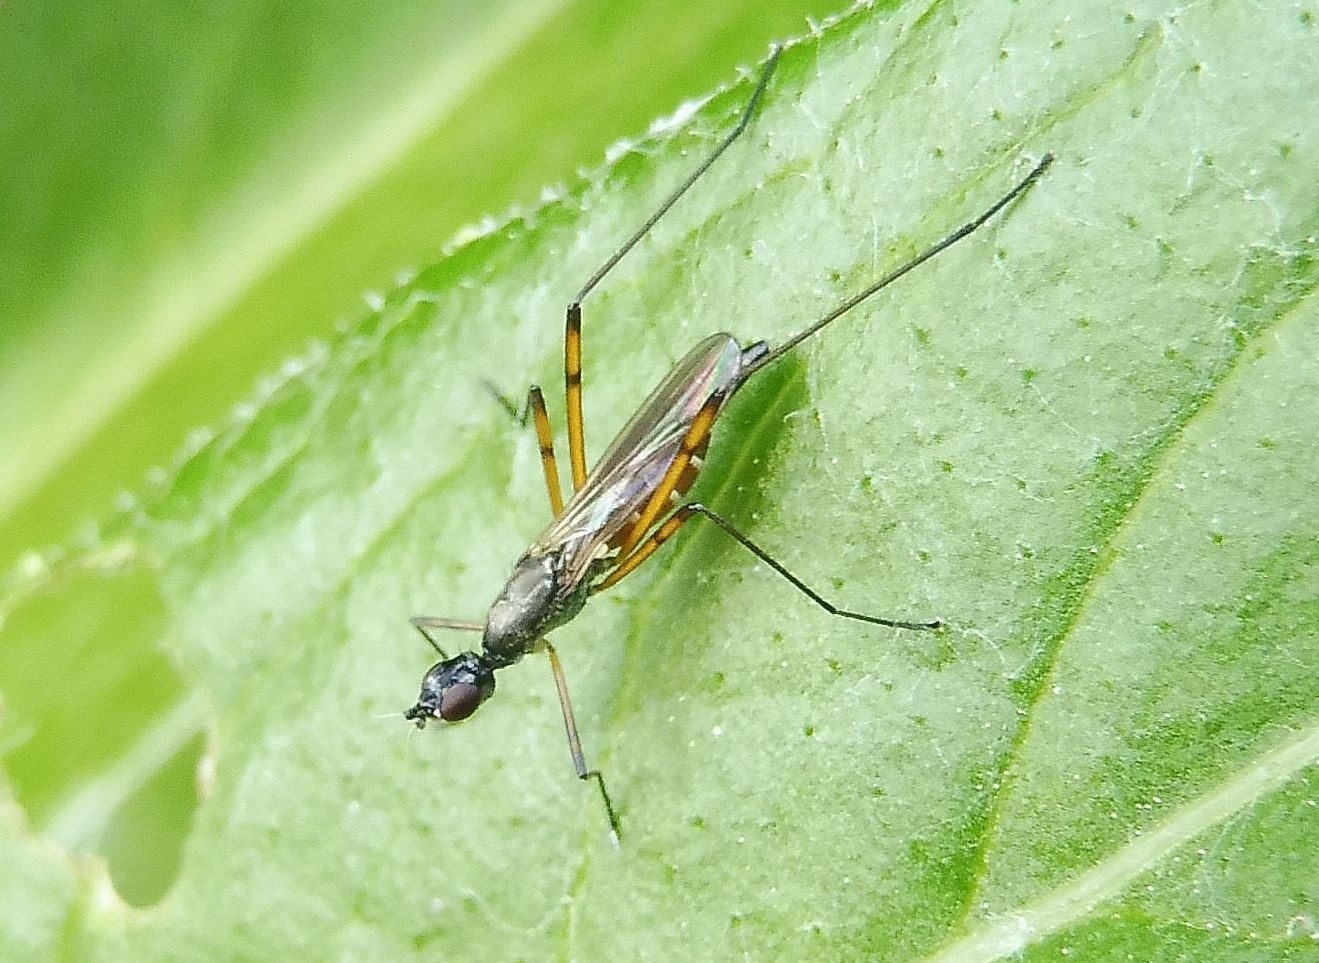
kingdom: Animalia
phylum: Arthropoda
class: Insecta
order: Diptera
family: Micropezidae
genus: Micropeza
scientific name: Micropeza corrigiolata
